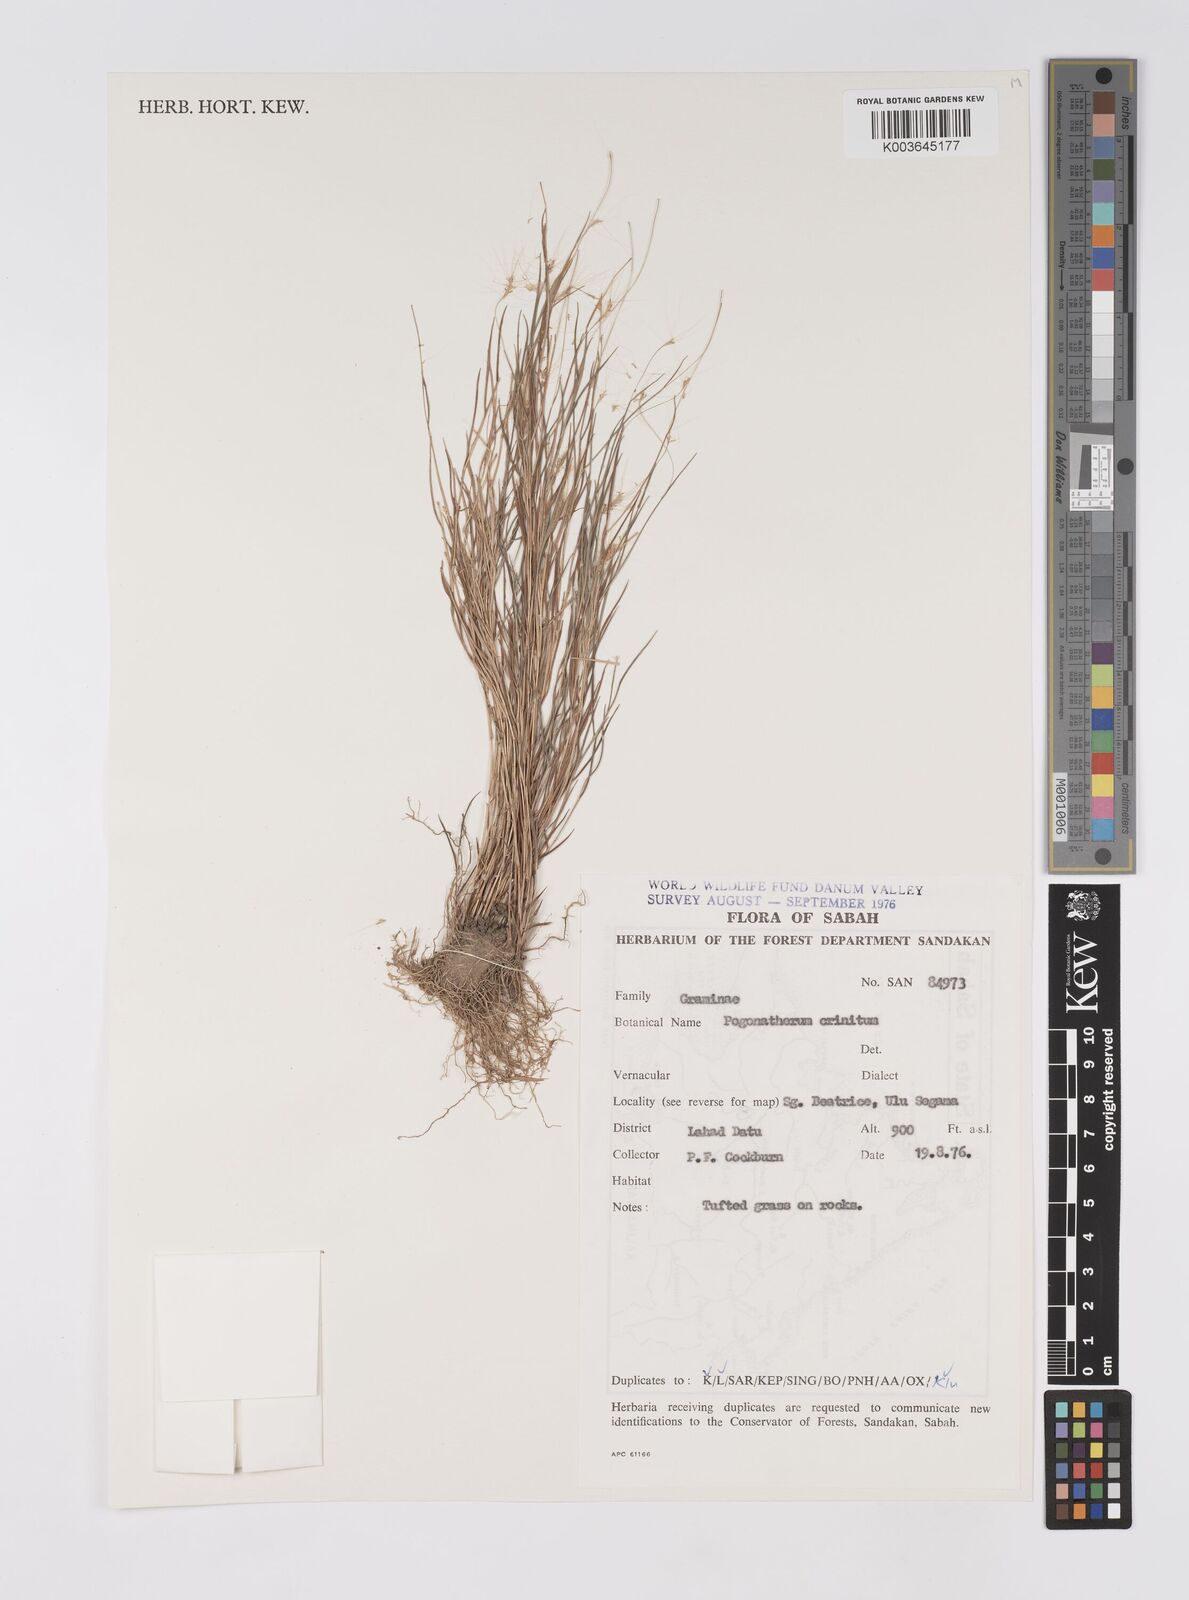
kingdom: Plantae
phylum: Tracheophyta
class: Liliopsida
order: Poales
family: Poaceae
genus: Pogonatherum
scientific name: Pogonatherum crinitum
